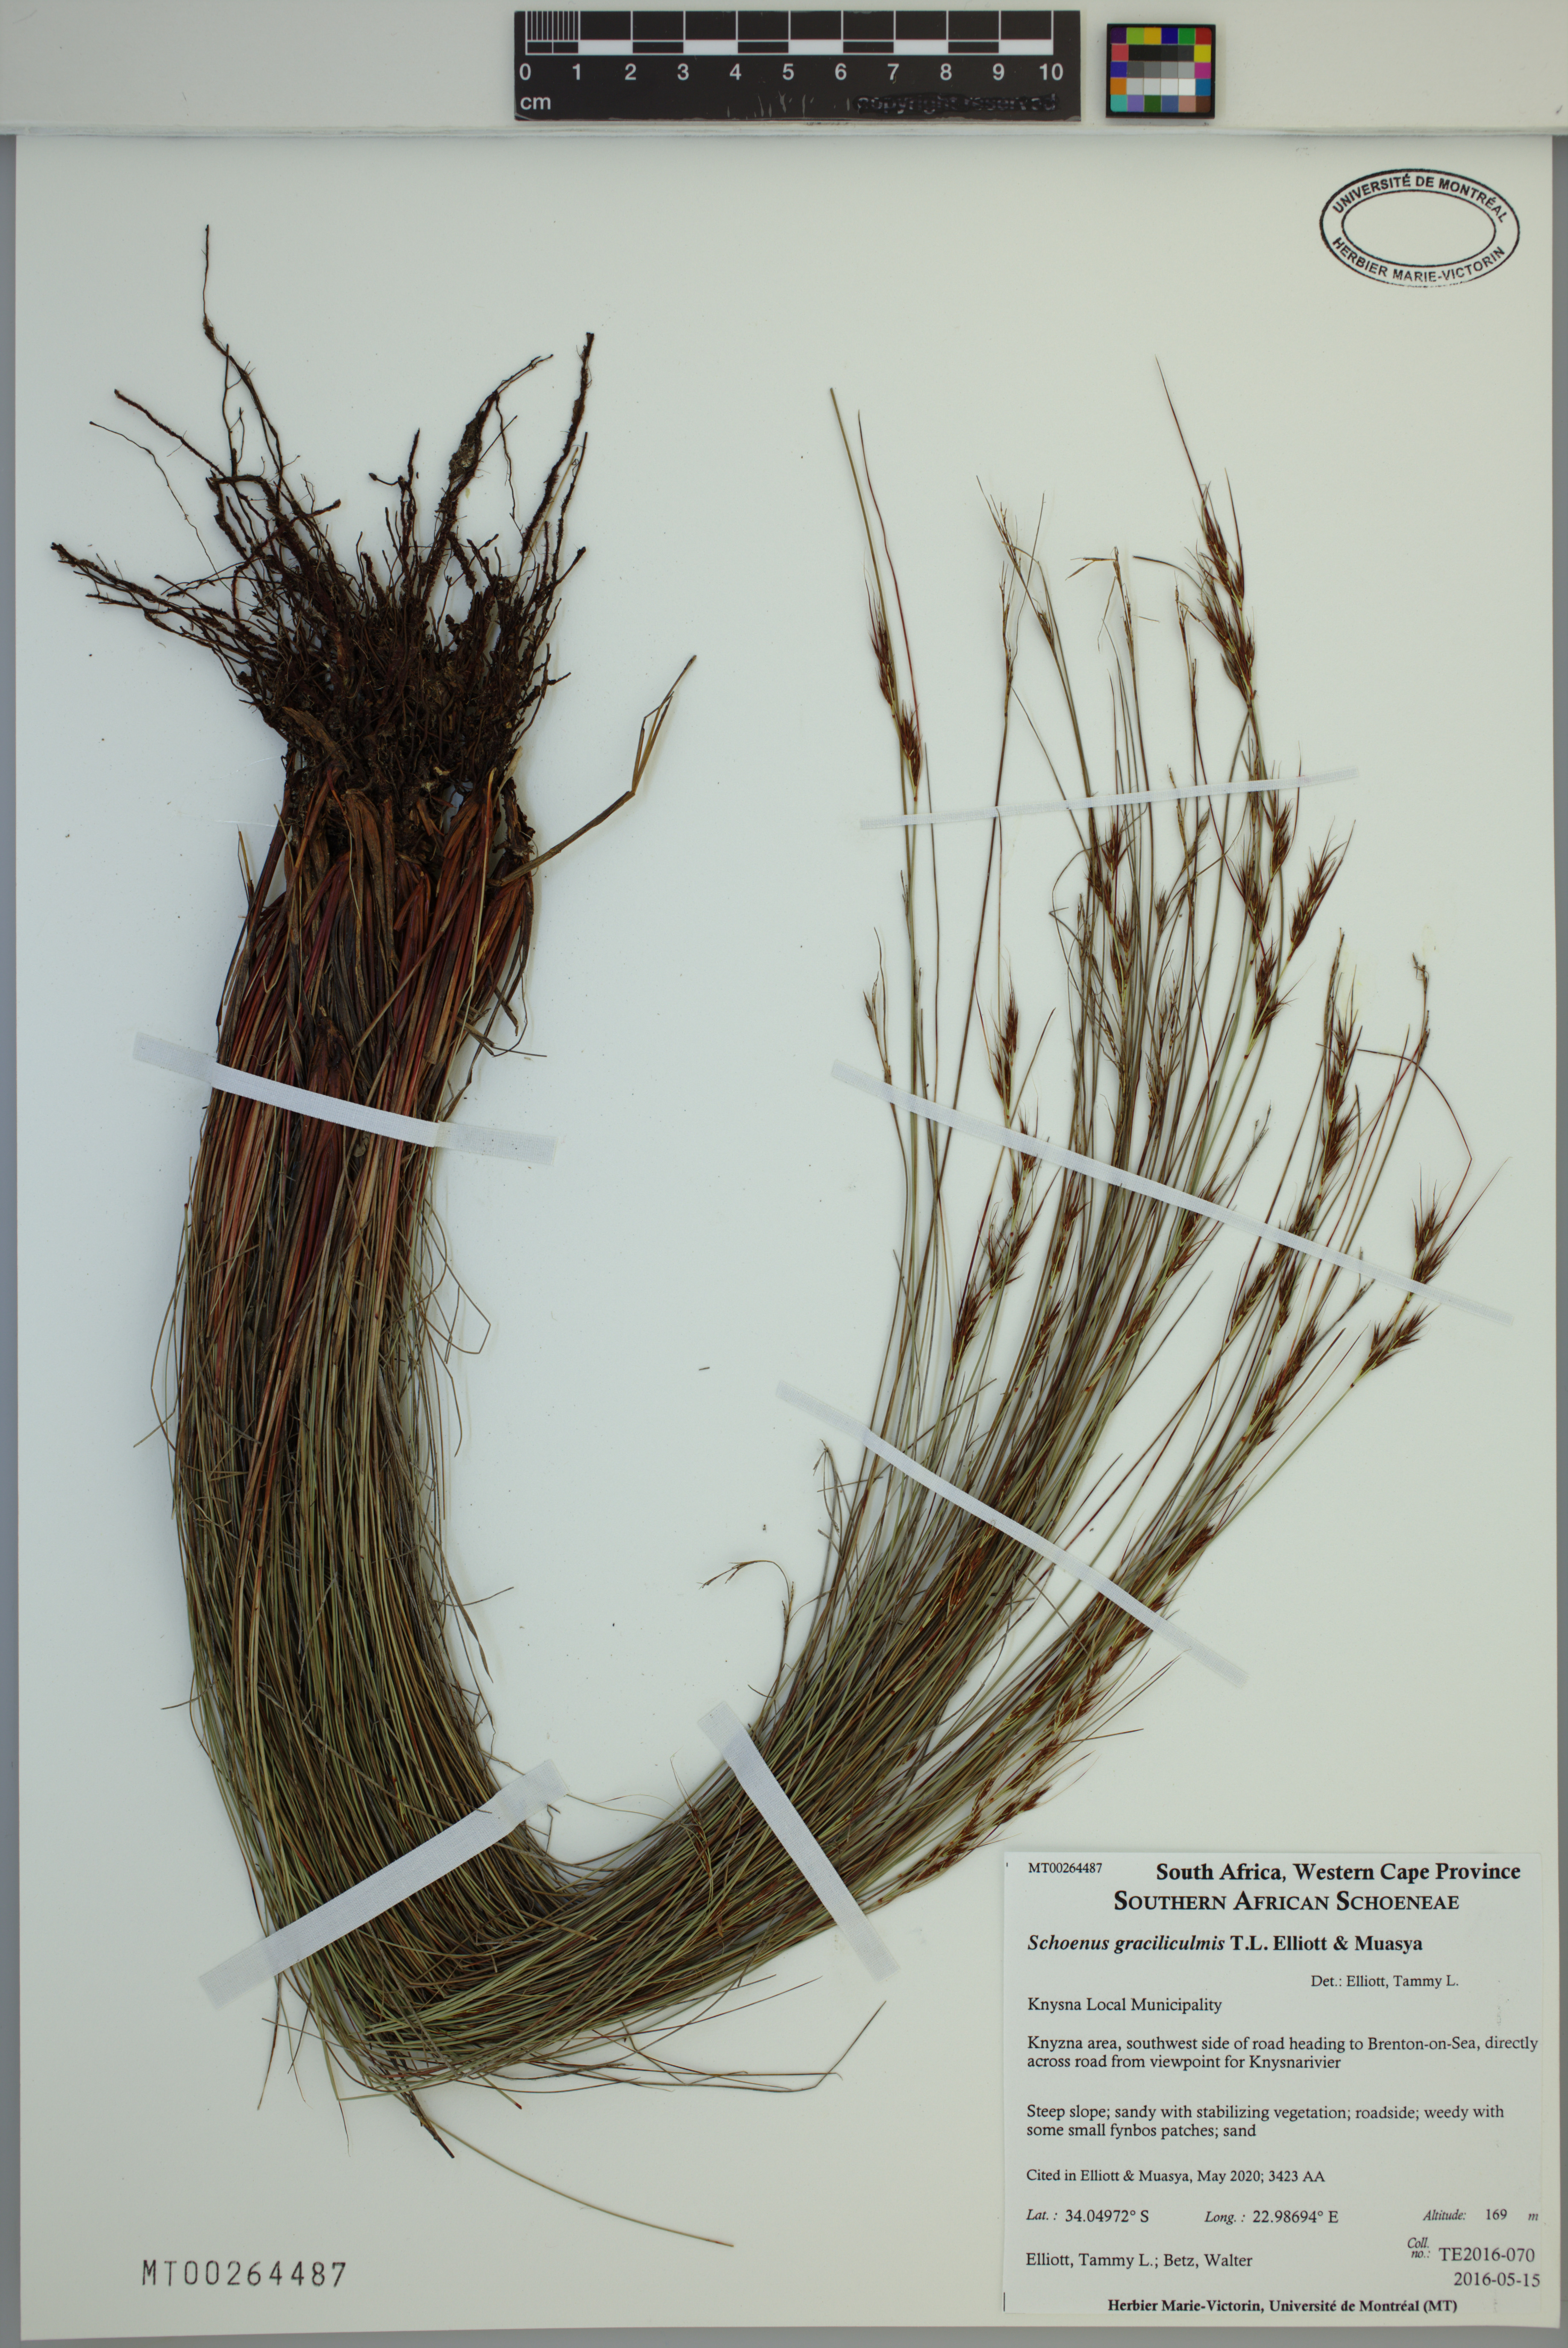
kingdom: Plantae
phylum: Tracheophyta
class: Liliopsida
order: Poales
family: Cyperaceae
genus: Schoenus
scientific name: Schoenus graciliculmis
